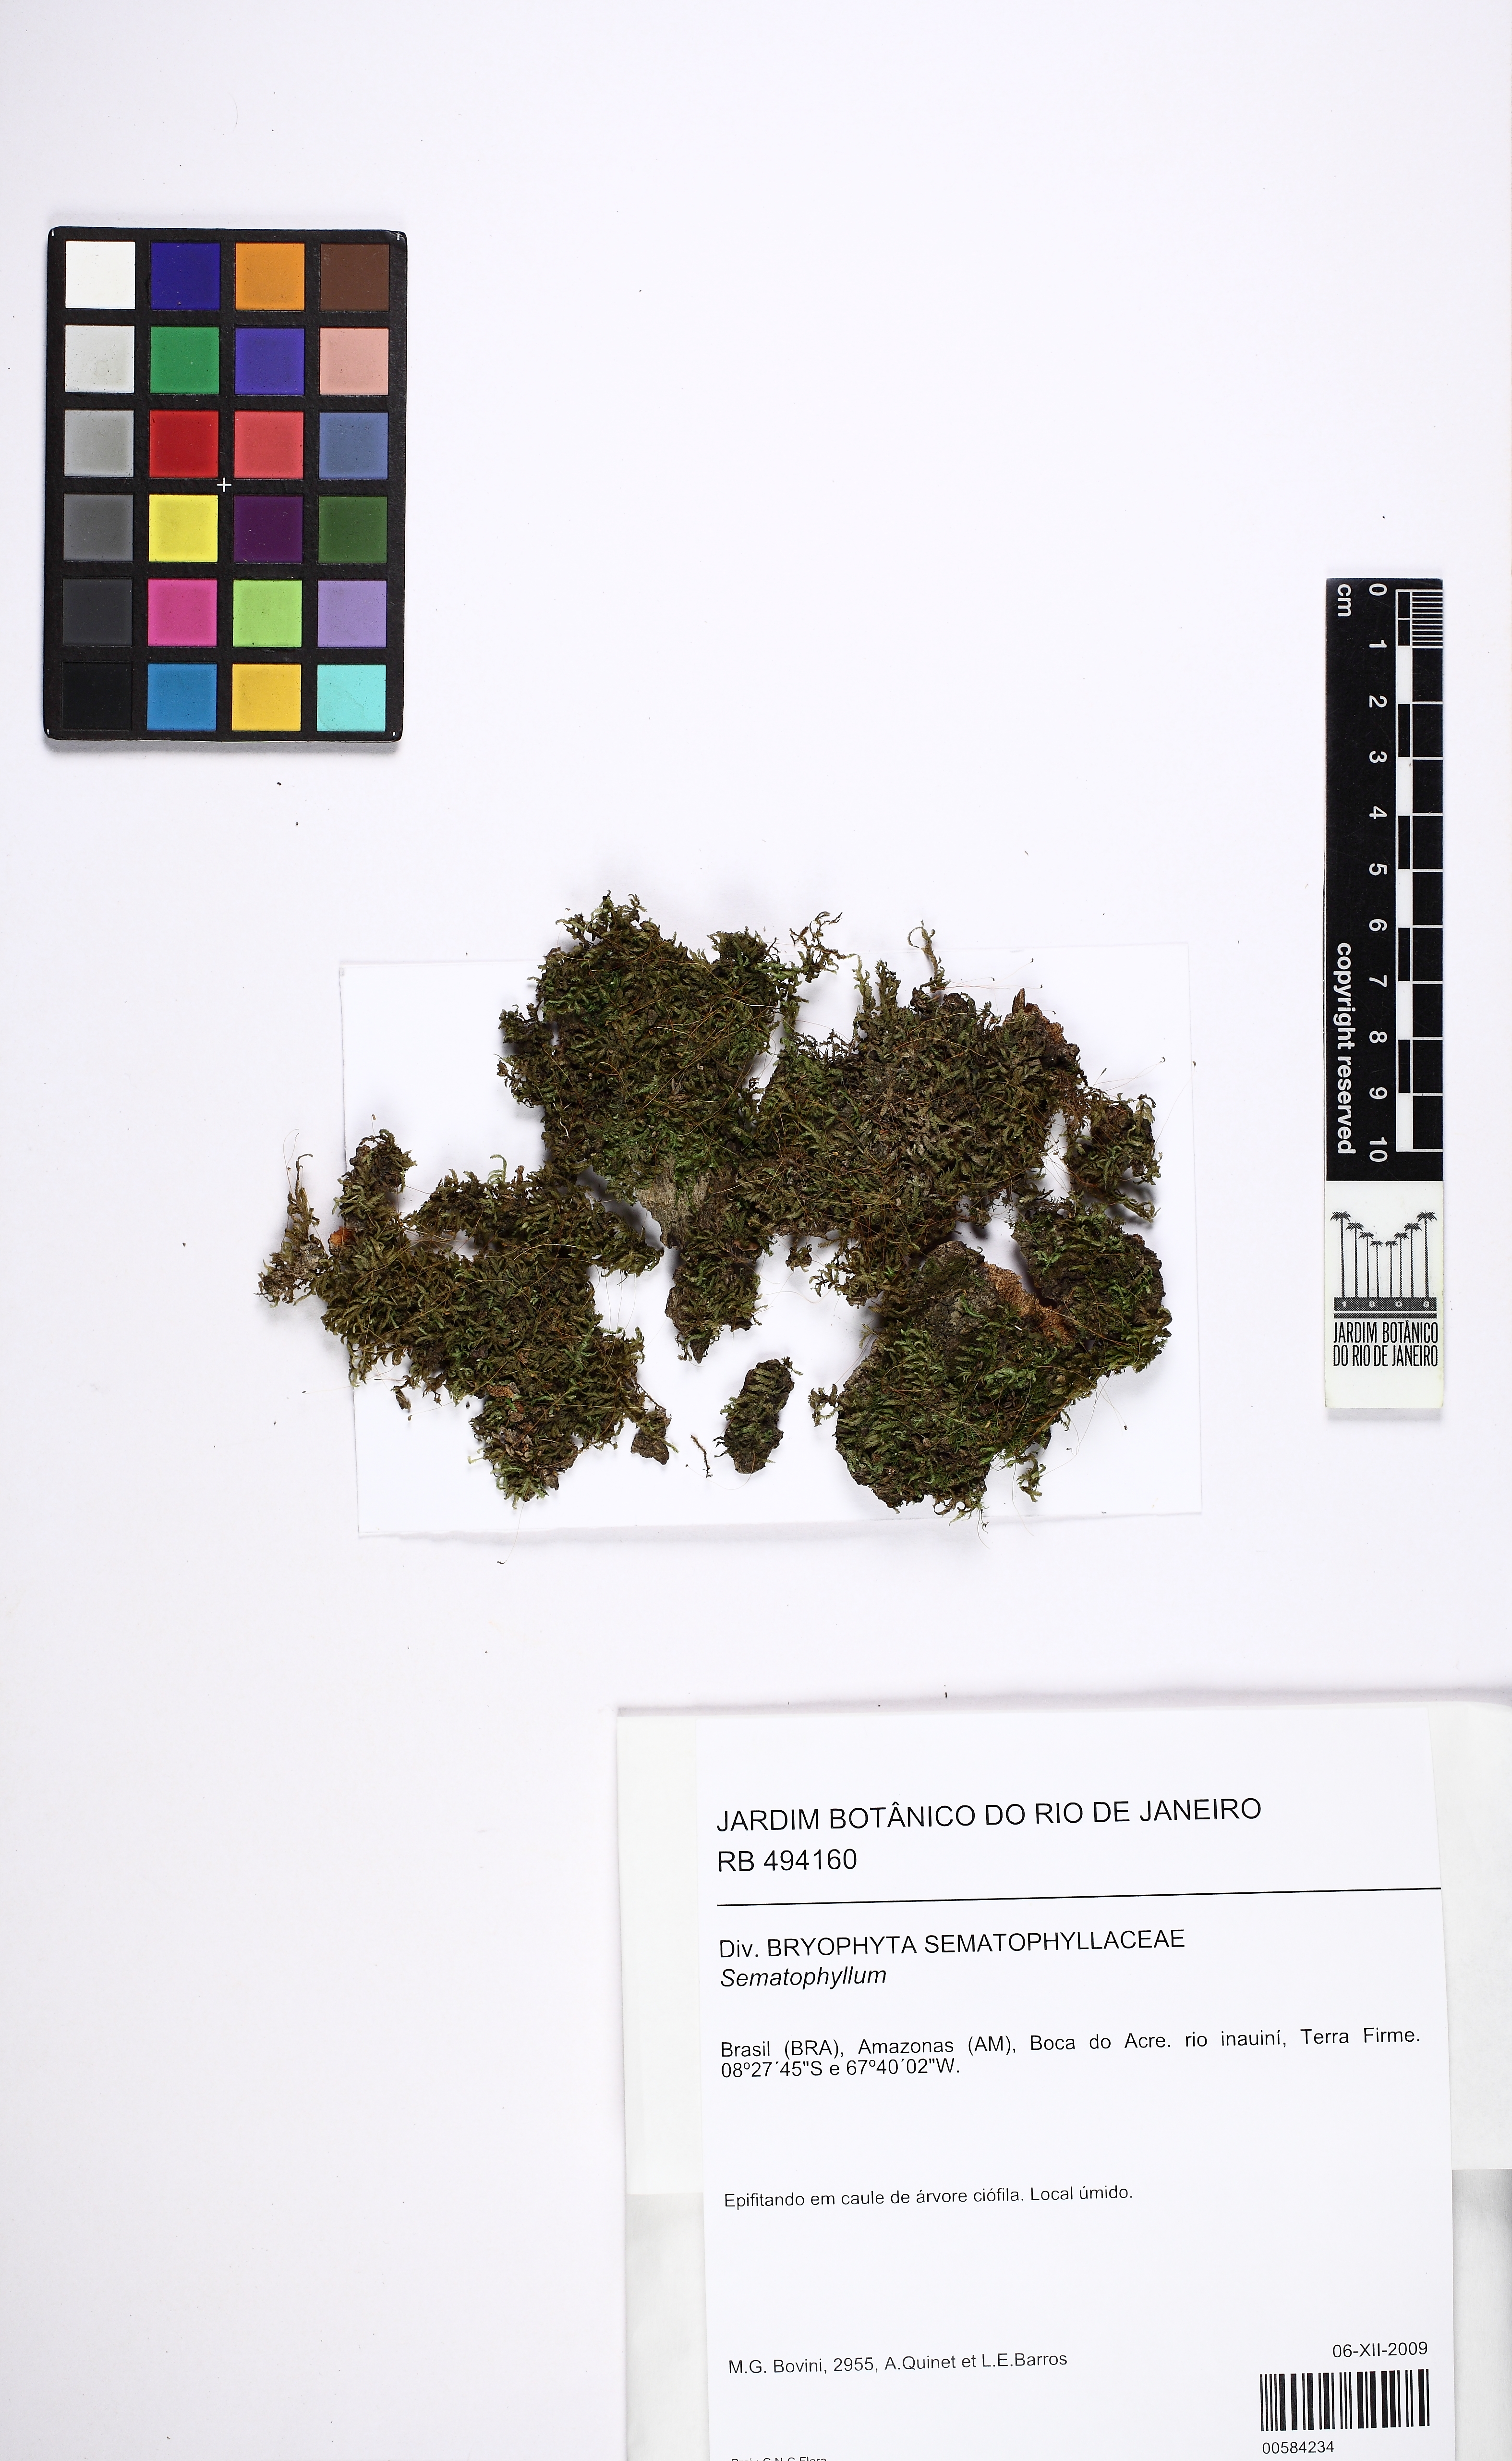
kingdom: Plantae
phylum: Bryophyta
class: Bryopsida
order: Hypnales
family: Sematophyllaceae
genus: Sematophyllum
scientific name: Sematophyllum
